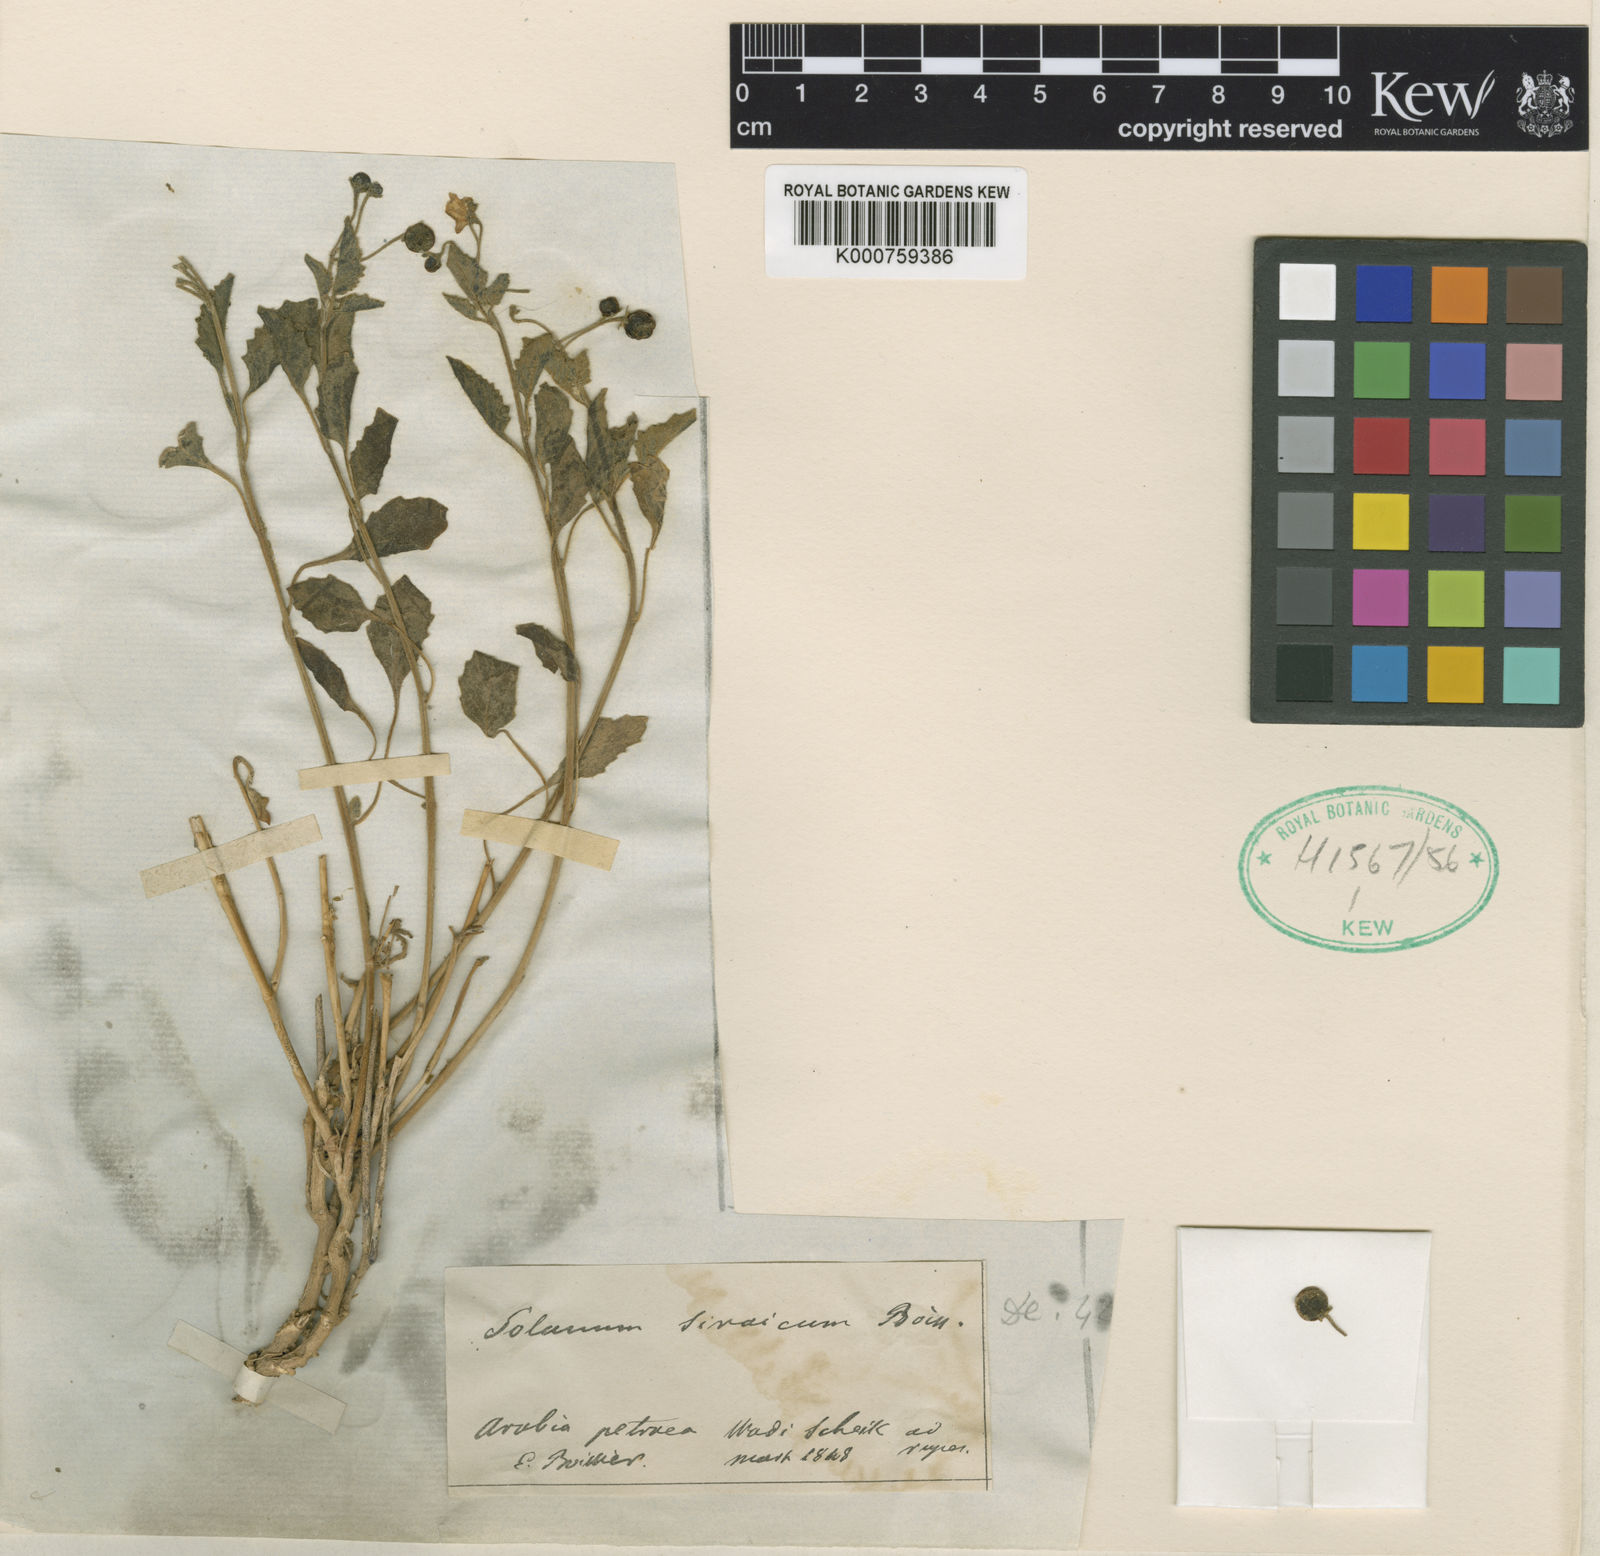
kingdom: Plantae
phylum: Tracheophyta
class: Magnoliopsida
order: Solanales
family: Solanaceae
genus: Solanum
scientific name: Solanum villosum
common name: Red nightshade
